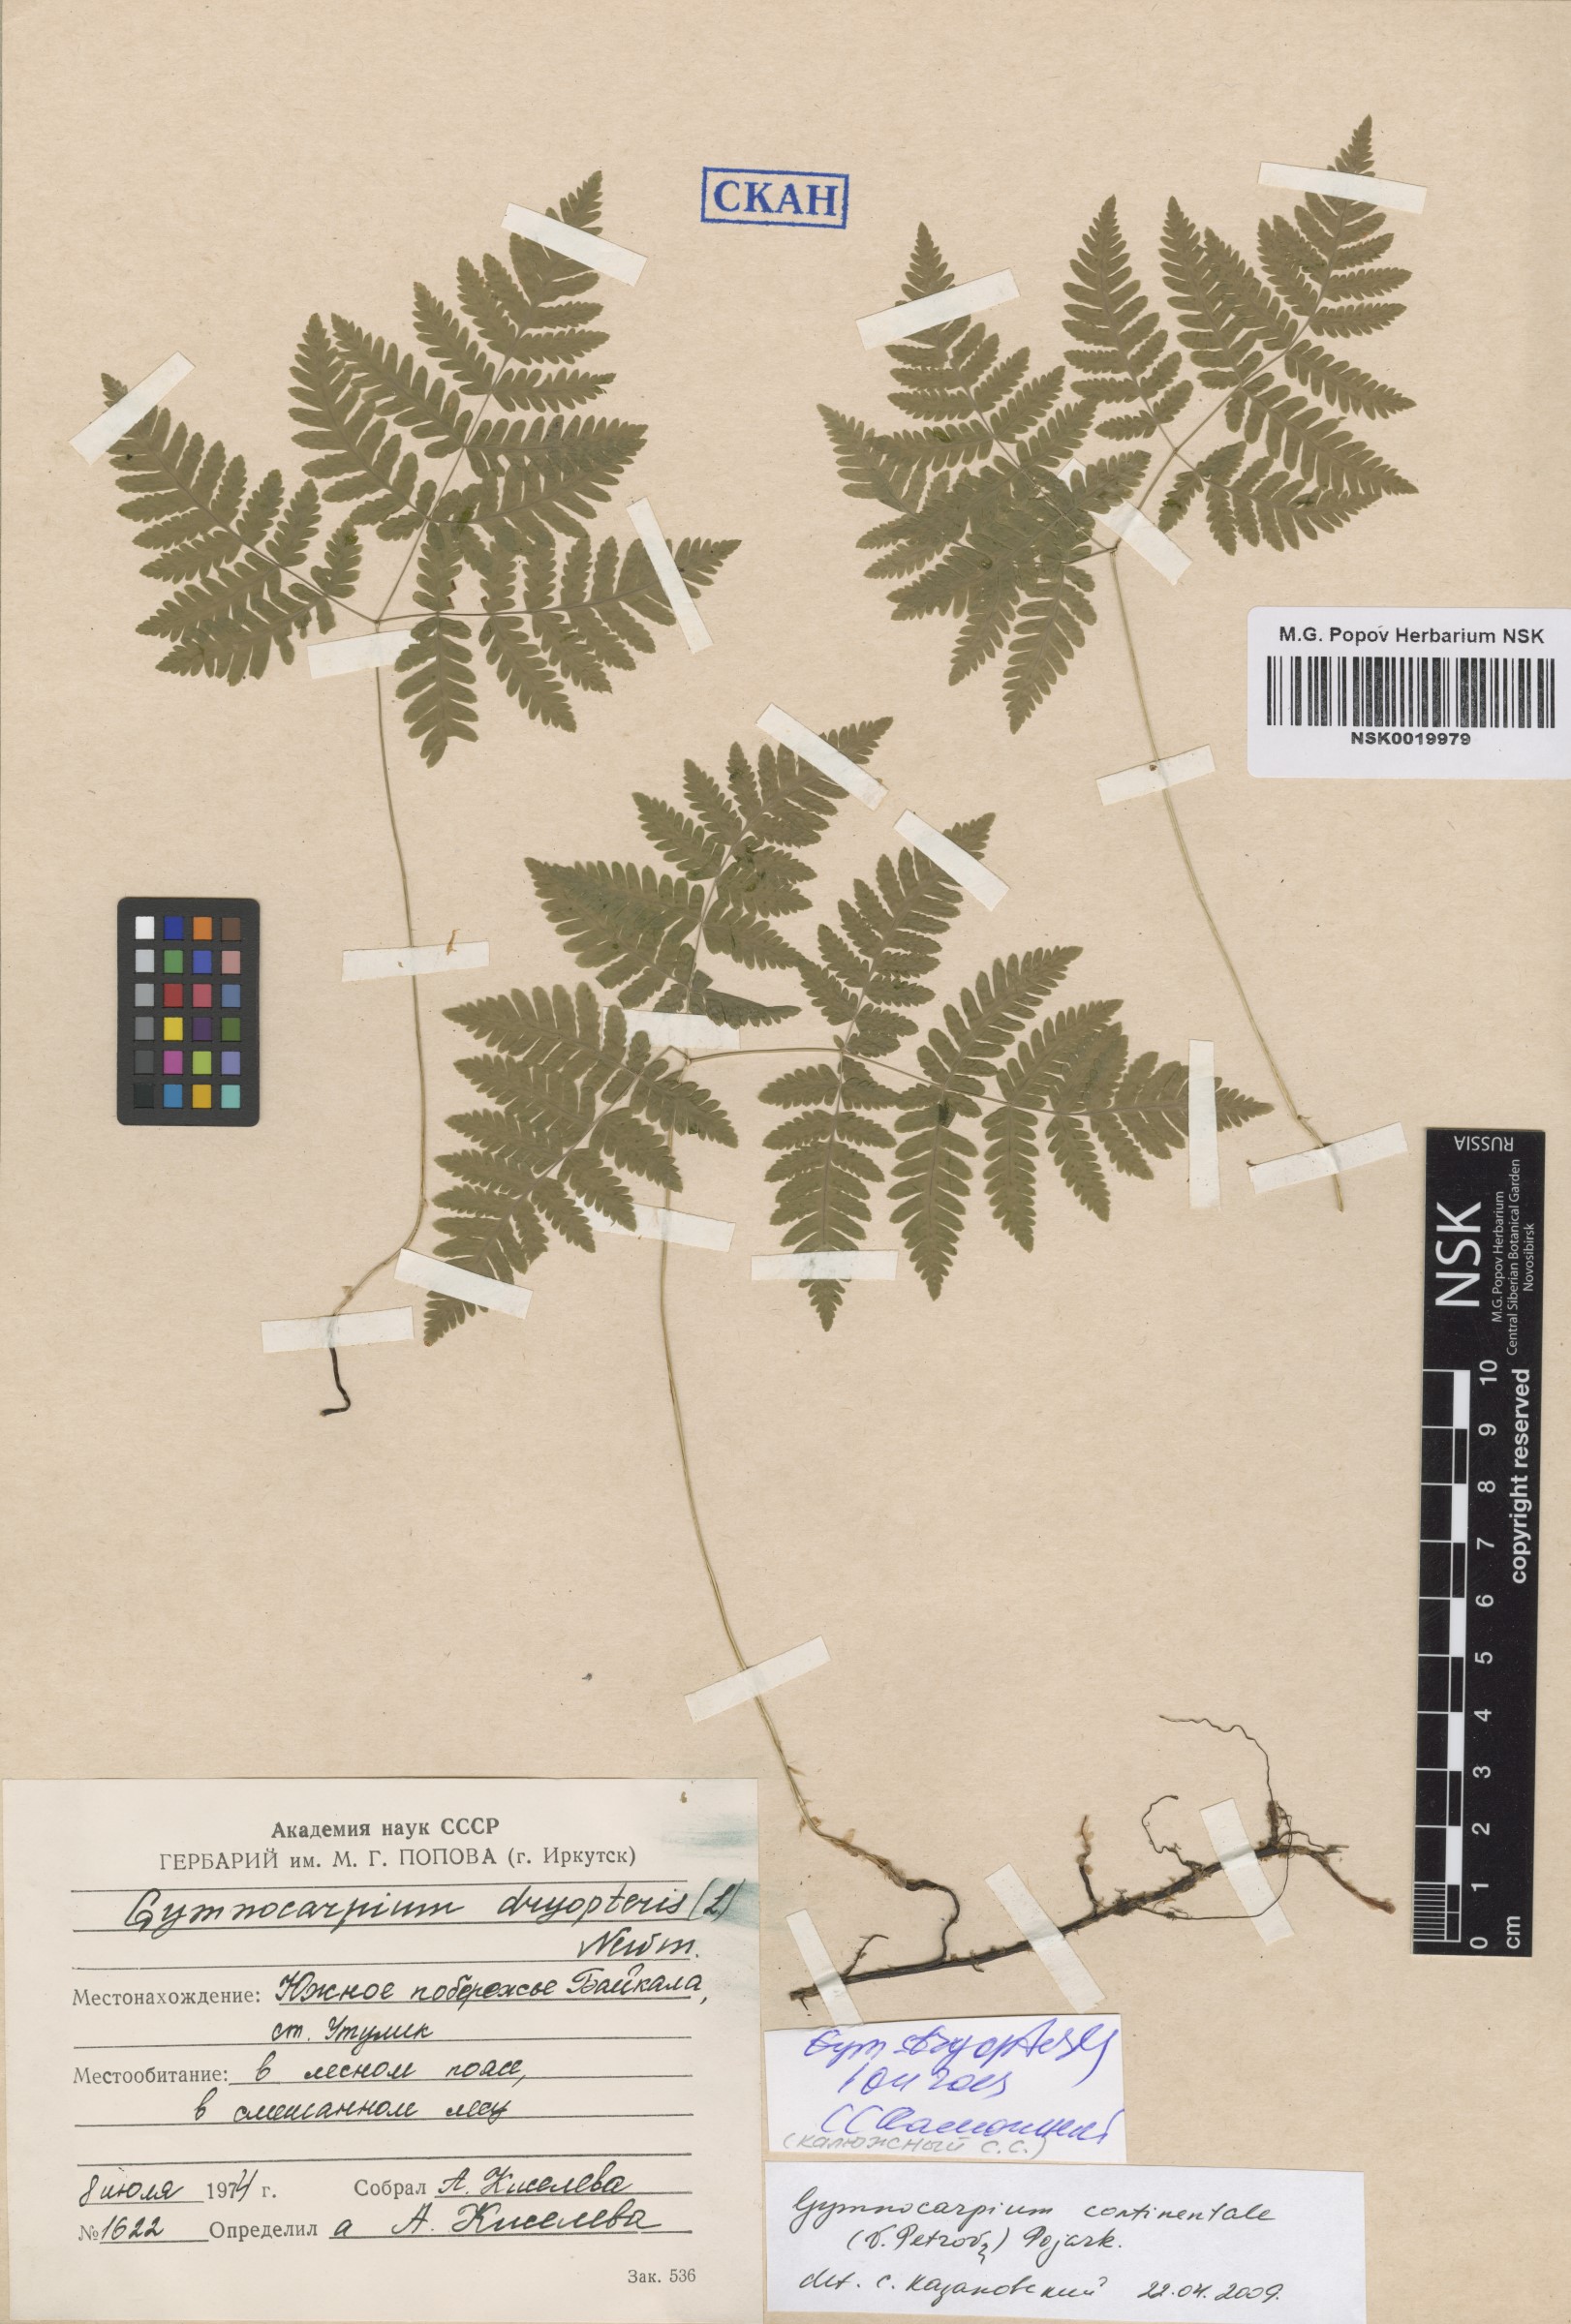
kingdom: Plantae
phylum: Tracheophyta
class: Polypodiopsida
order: Polypodiales
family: Cystopteridaceae
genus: Gymnocarpium
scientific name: Gymnocarpium dryopteris
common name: Oak fern
